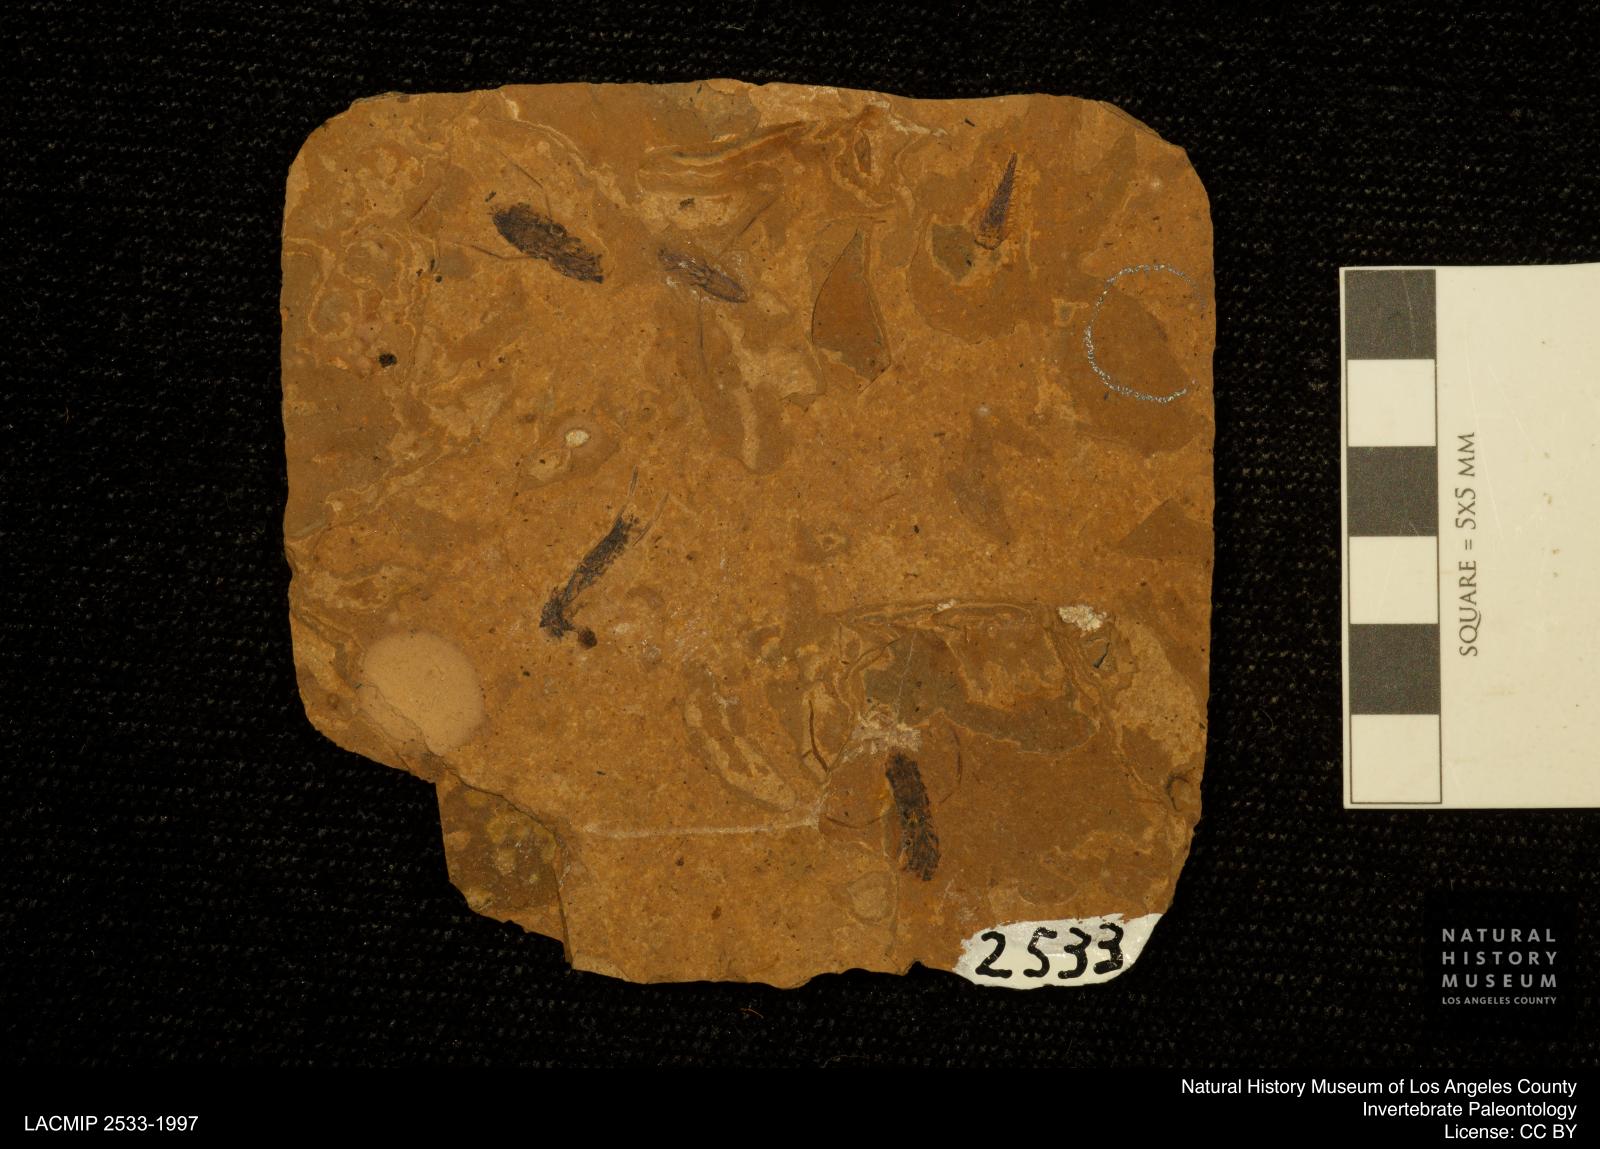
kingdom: Animalia
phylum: Arthropoda
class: Insecta
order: Hemiptera
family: Notonectidae
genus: Notonecta
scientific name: Notonecta
